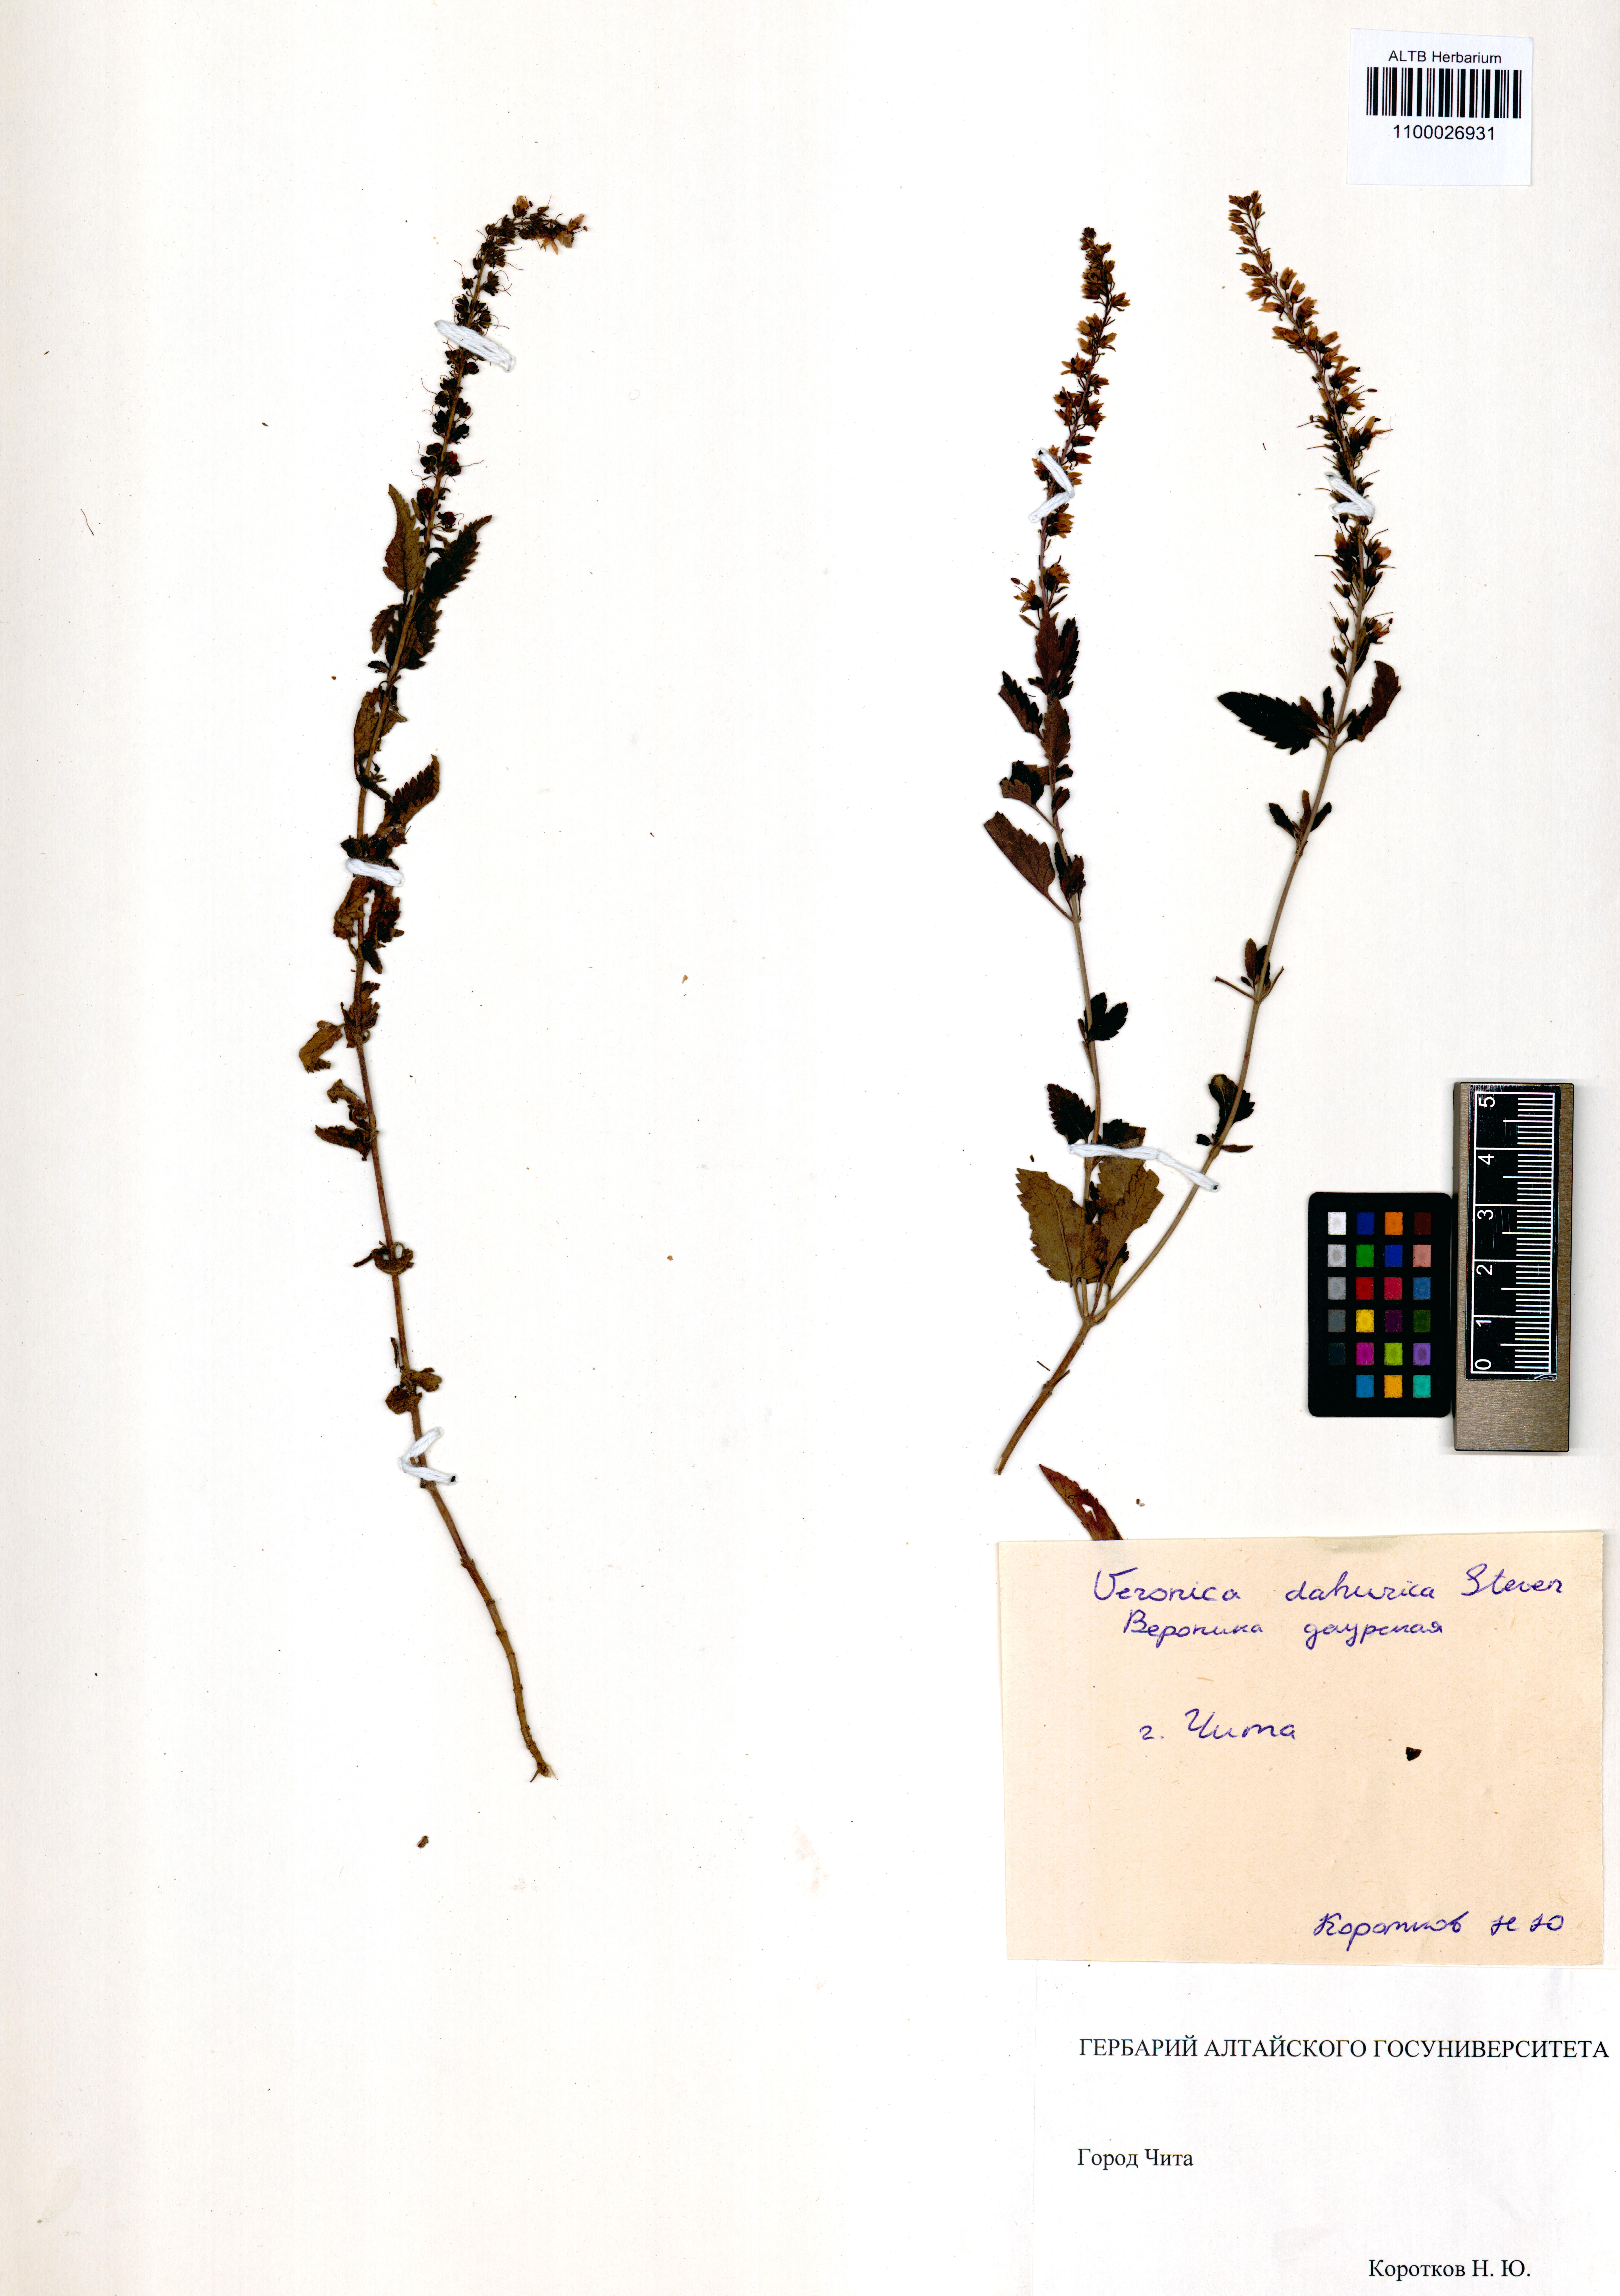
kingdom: Plantae
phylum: Tracheophyta
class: Magnoliopsida
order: Lamiales
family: Plantaginaceae
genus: Veronica
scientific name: Veronica daurica
